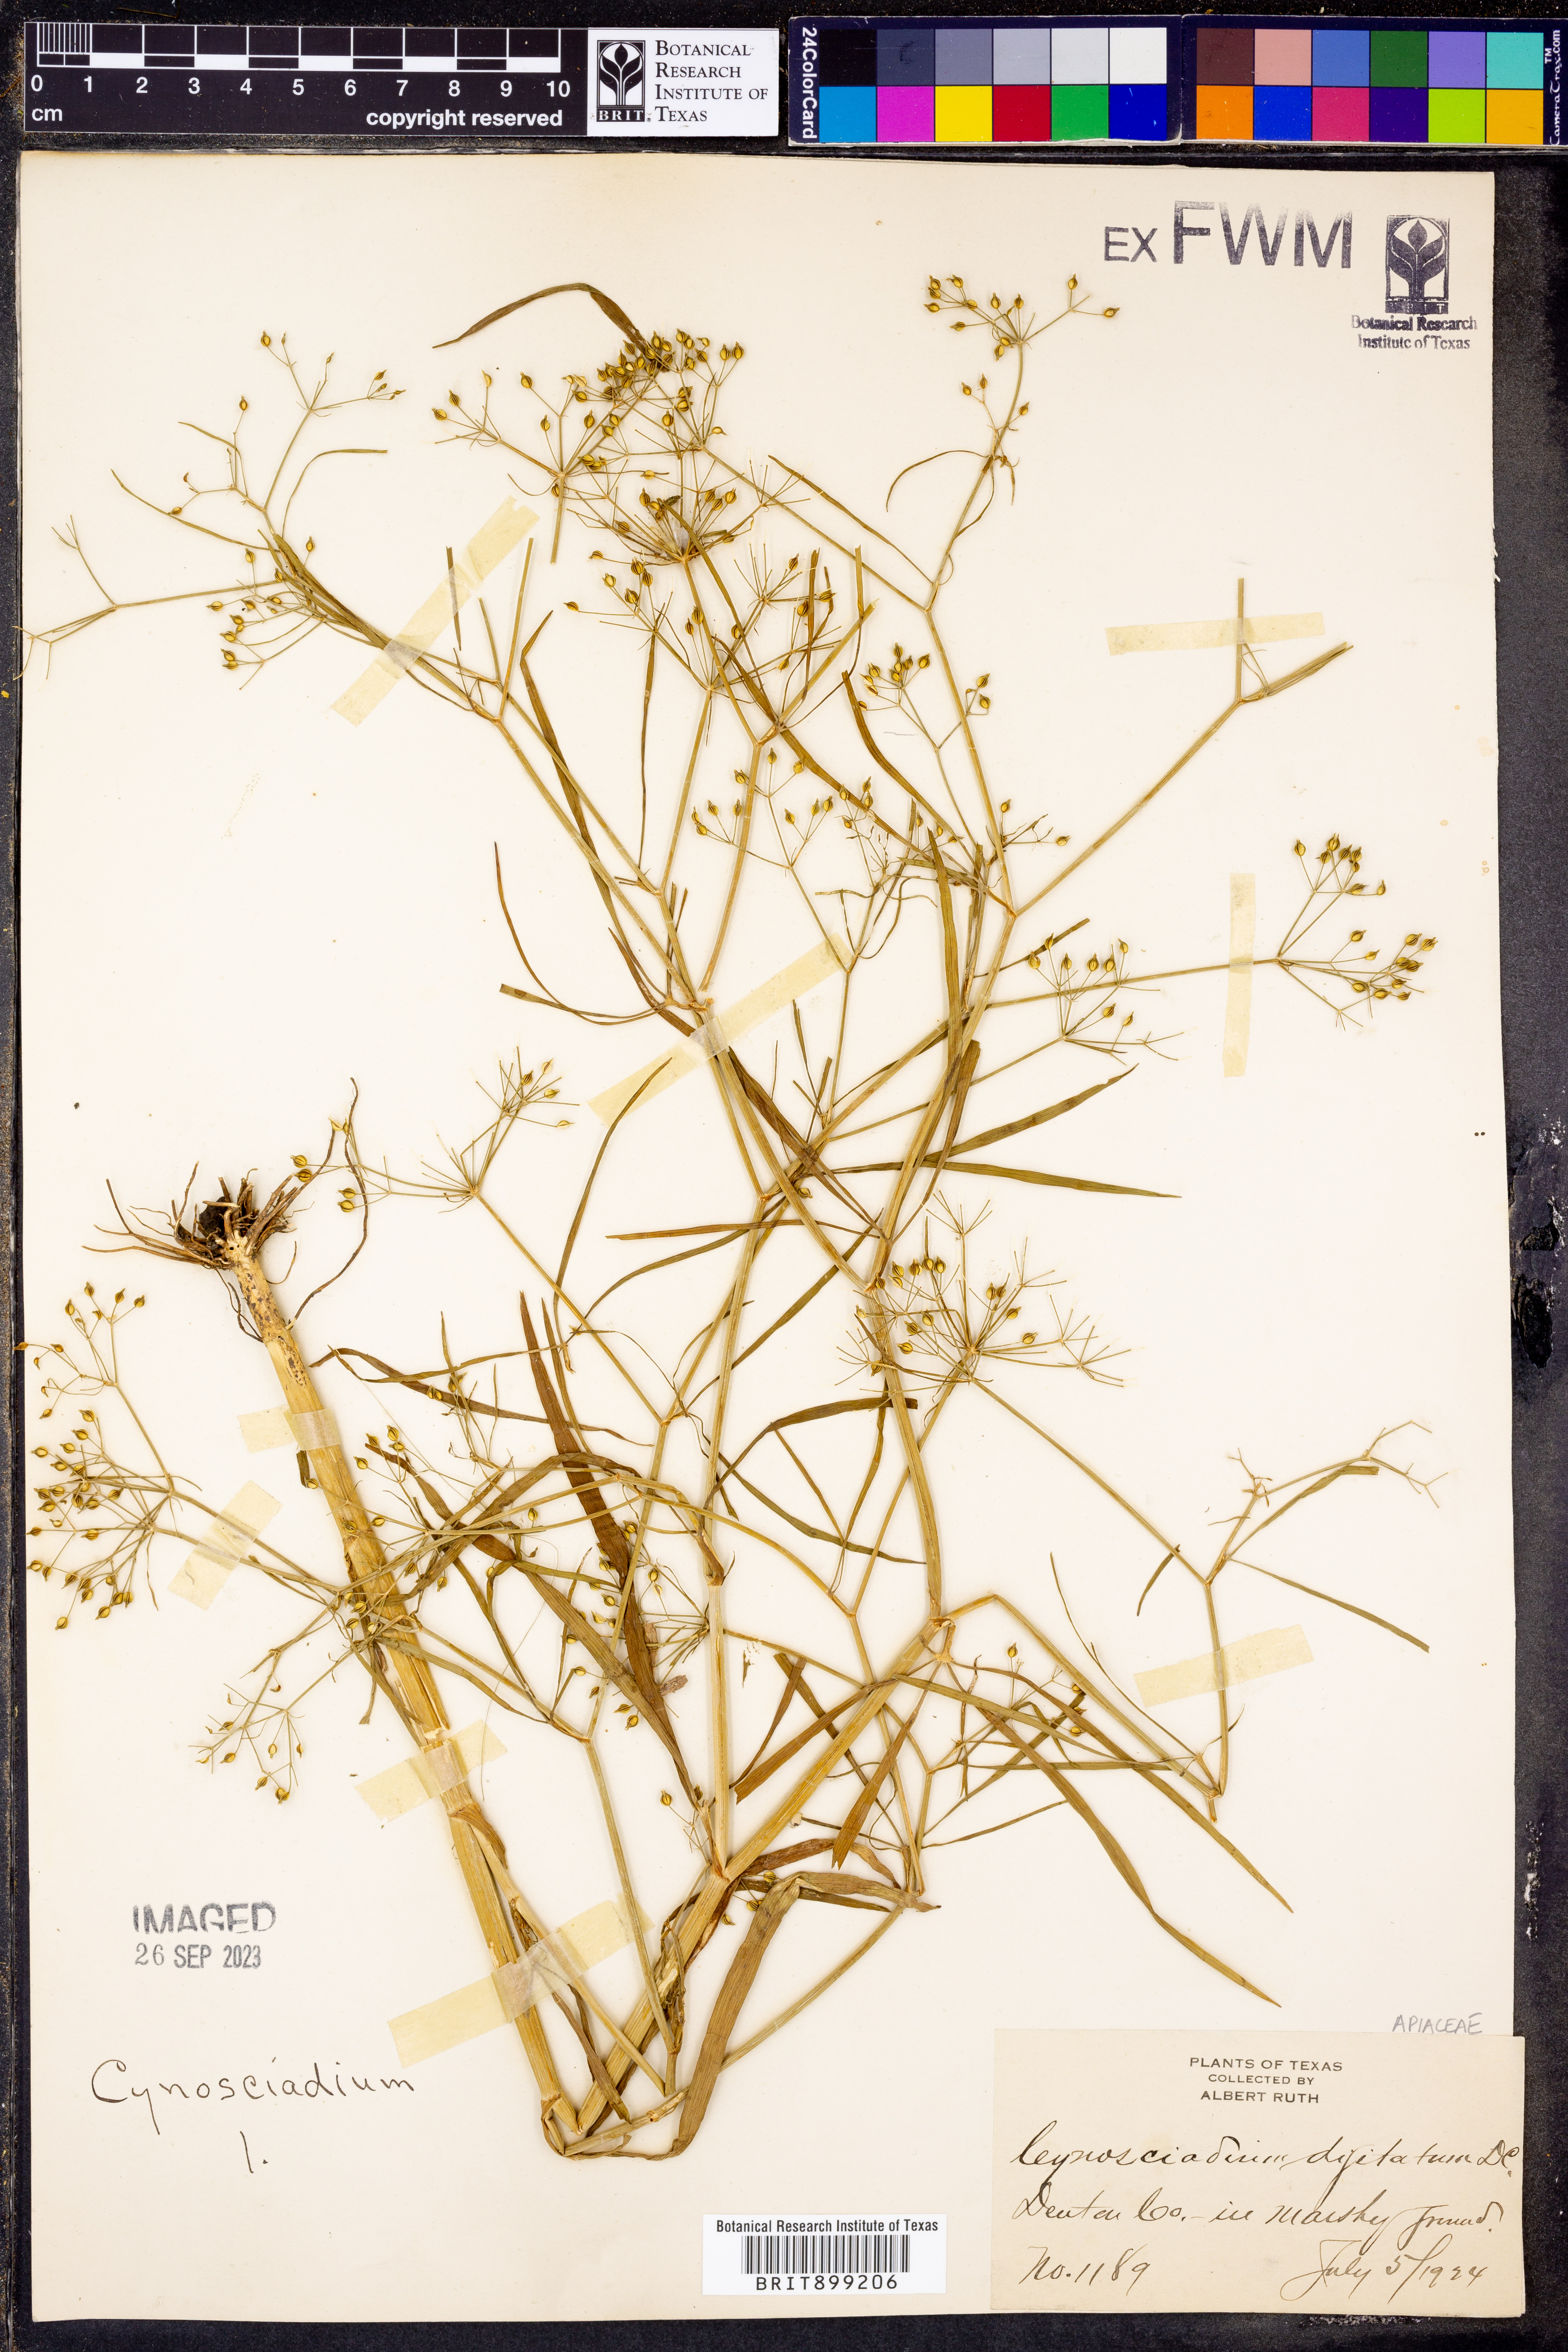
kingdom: Plantae
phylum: Tracheophyta
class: Magnoliopsida
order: Apiales
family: Apiaceae
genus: Cynosciadium
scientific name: Cynosciadium digitatum
